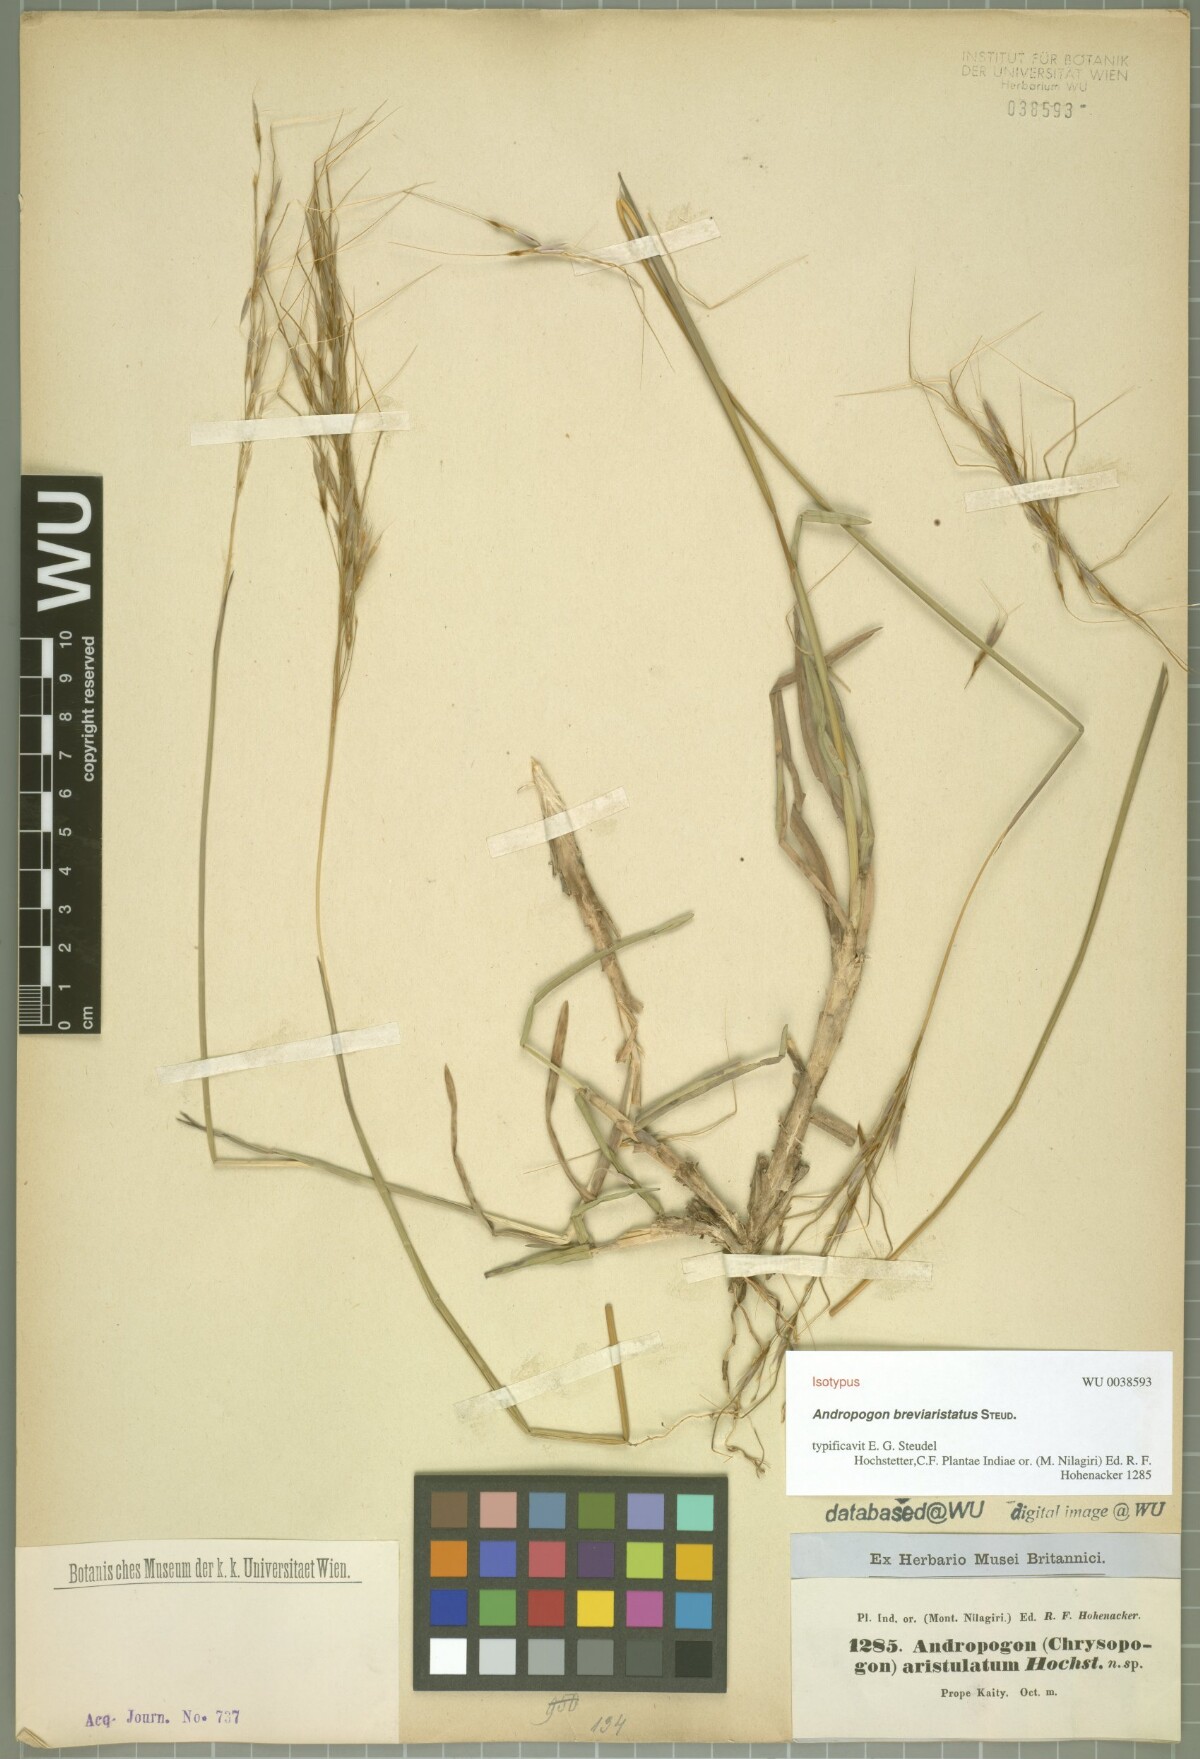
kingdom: Plantae
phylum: Tracheophyta
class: Liliopsida
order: Poales
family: Poaceae
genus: Chrysopogon
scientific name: Chrysopogon orientalis
